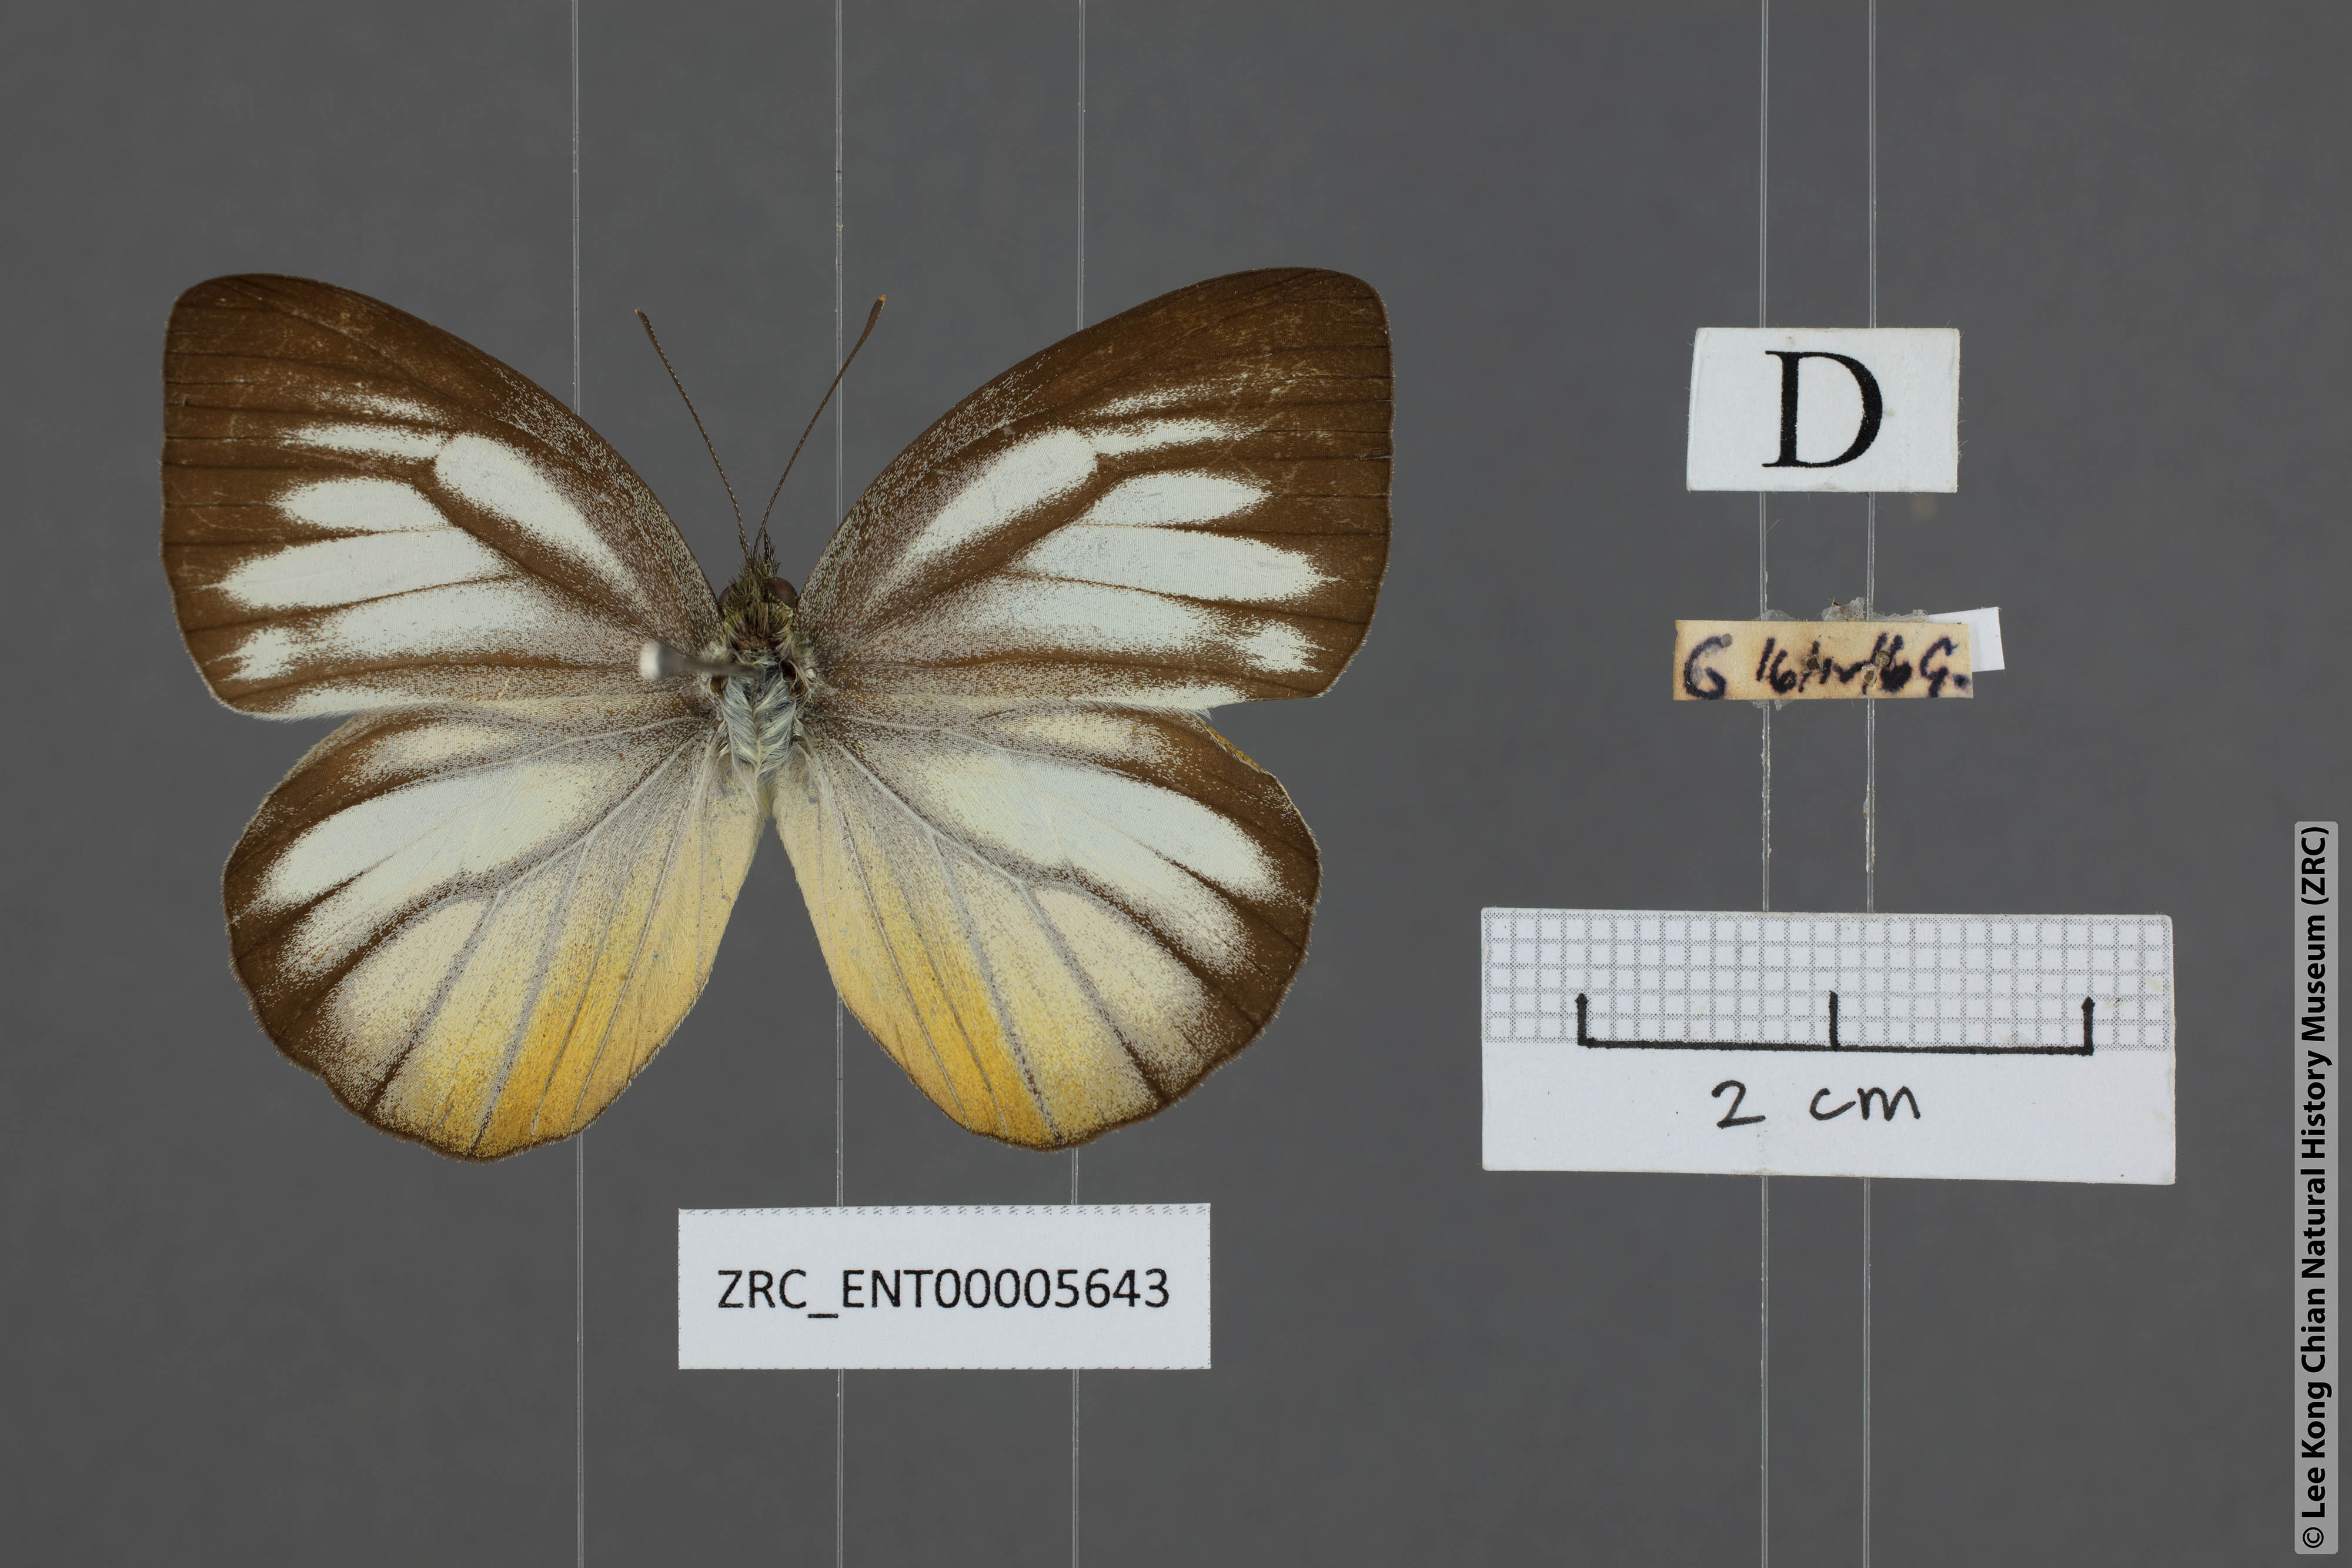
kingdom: Animalia
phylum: Arthropoda
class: Insecta
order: Lepidoptera
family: Pieridae
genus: Cepora
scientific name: Cepora nadina
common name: Lesser gull
